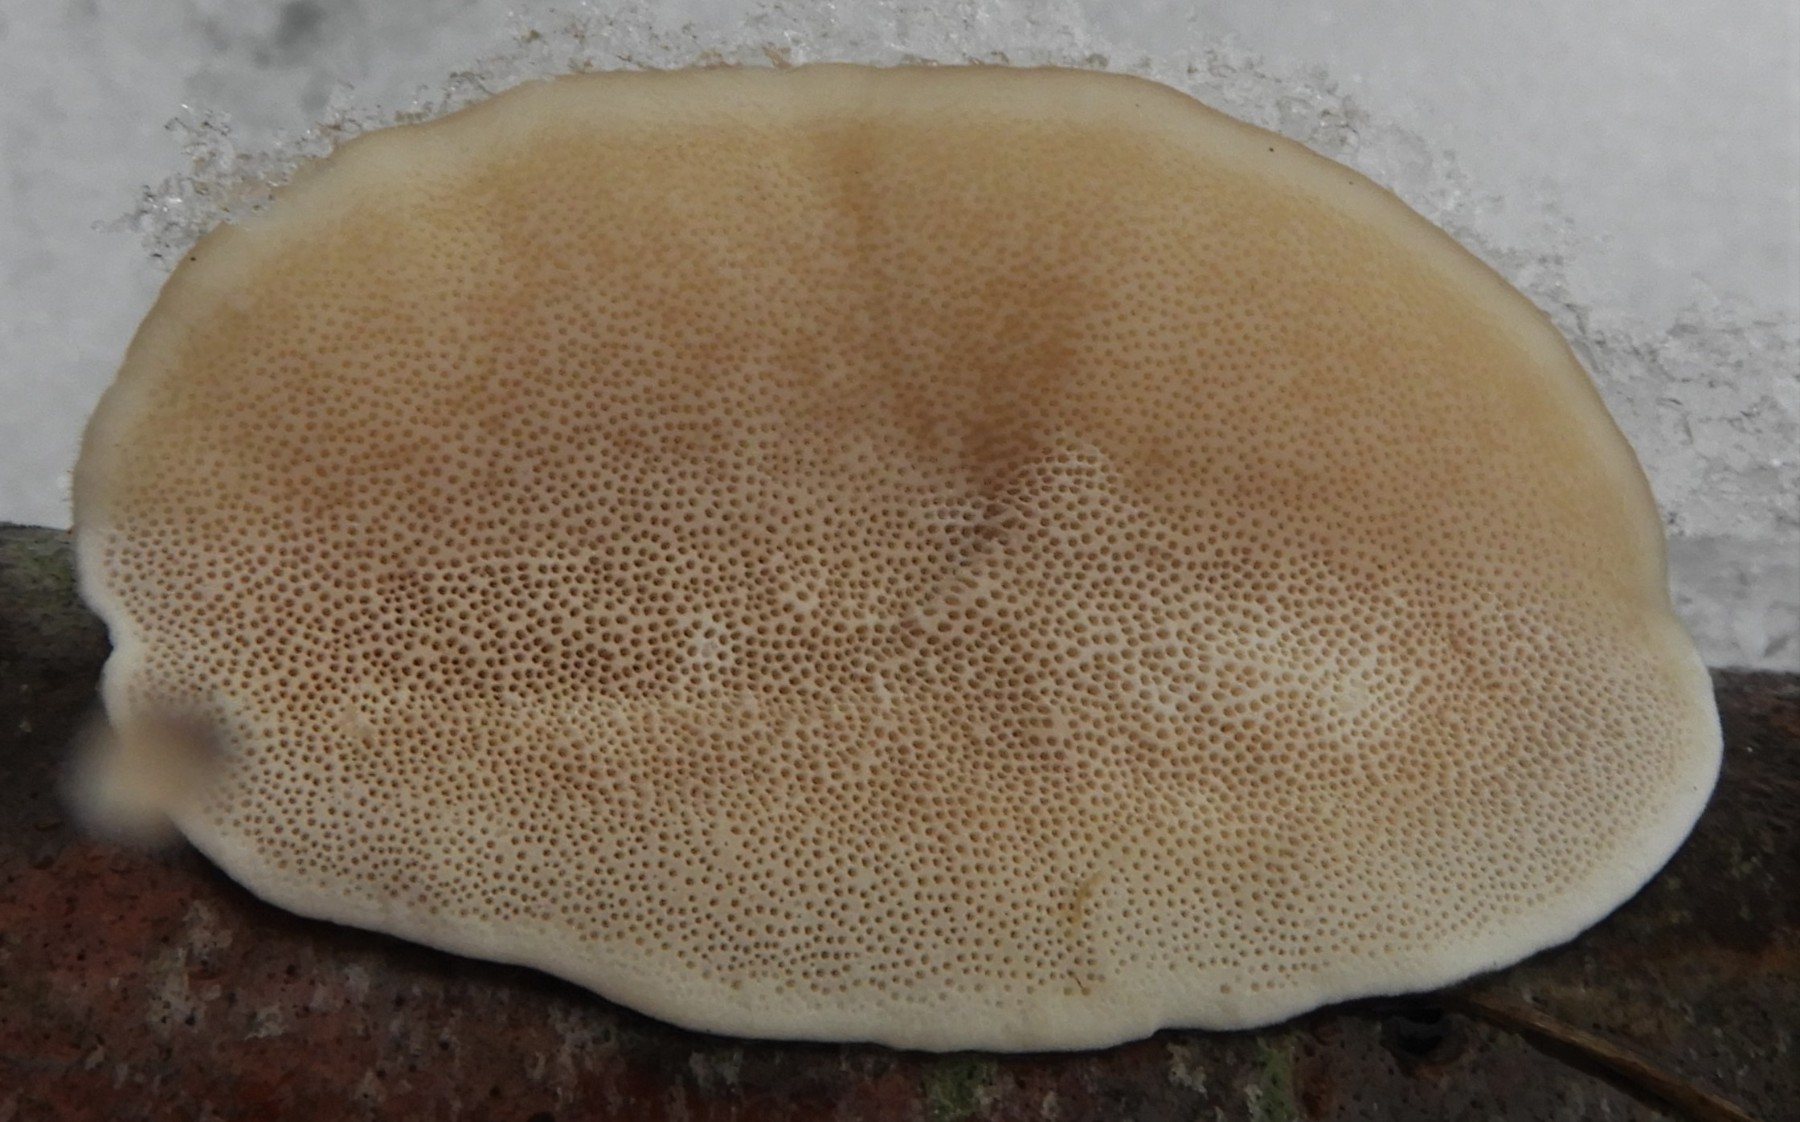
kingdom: Fungi
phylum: Basidiomycota
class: Agaricomycetes
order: Polyporales
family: Polyporaceae
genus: Trametes
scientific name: Trametes hirsuta
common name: håret læderporesvamp
